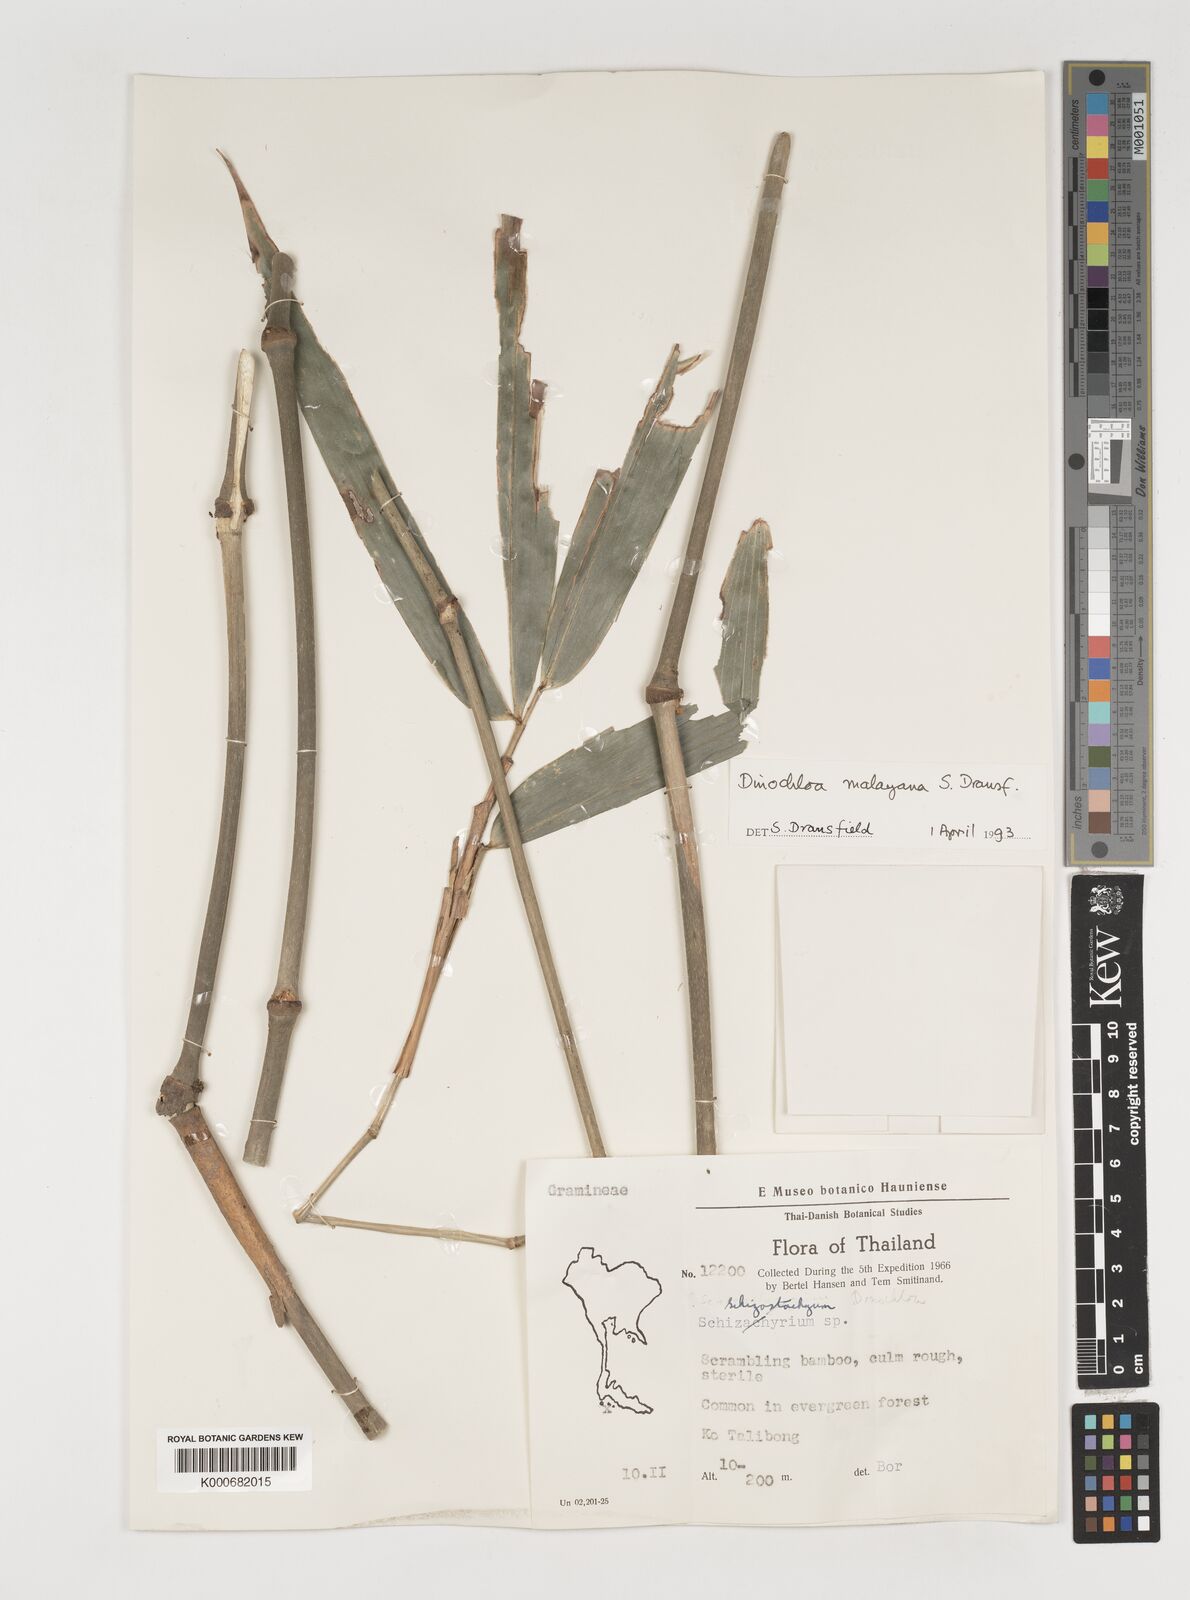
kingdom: Plantae
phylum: Tracheophyta
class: Liliopsida
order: Poales
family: Poaceae
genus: Dinochloa
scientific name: Dinochloa malayana
